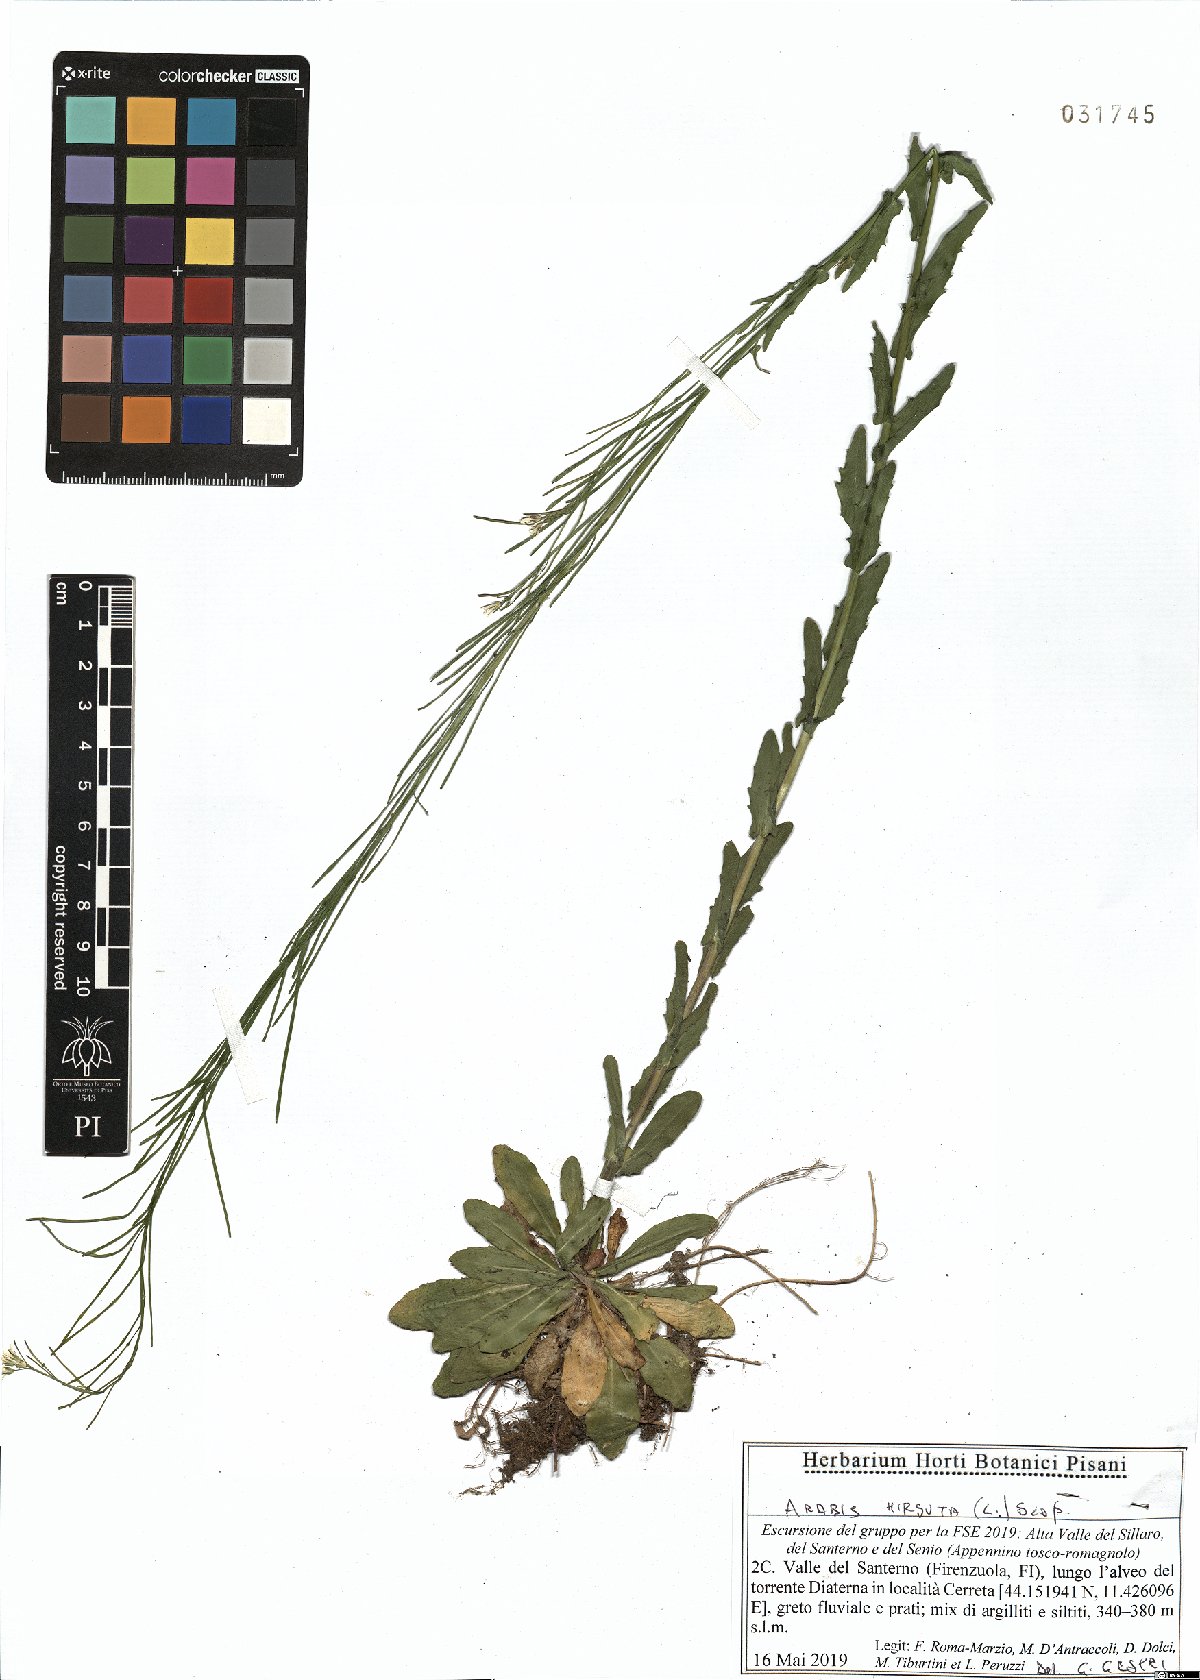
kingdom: Plantae
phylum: Tracheophyta
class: Magnoliopsida
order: Brassicales
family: Brassicaceae
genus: Arabis
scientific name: Arabis hirsuta
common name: Hairy rock-cress
